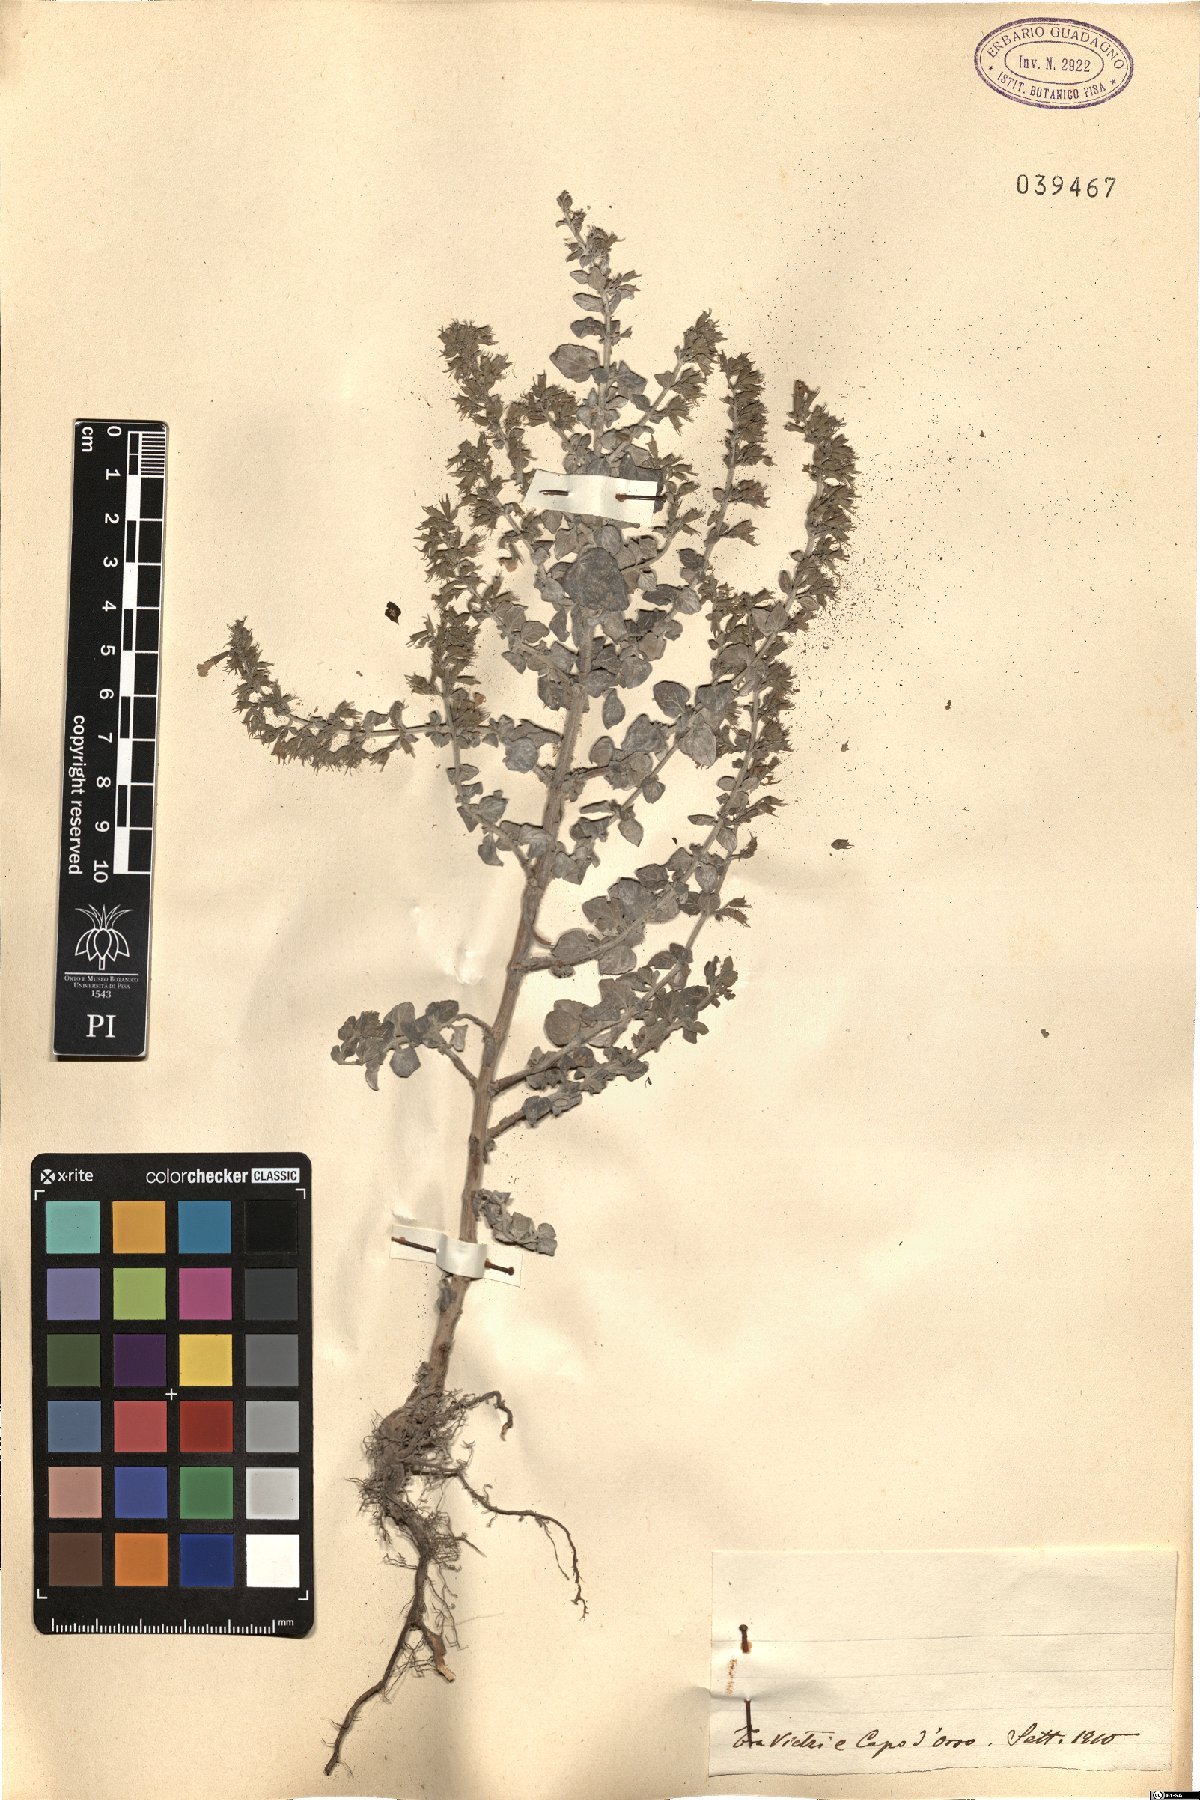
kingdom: Plantae
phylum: Tracheophyta
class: Magnoliopsida
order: Lamiales
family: Lamiaceae
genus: Calamintha
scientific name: Calamintha
